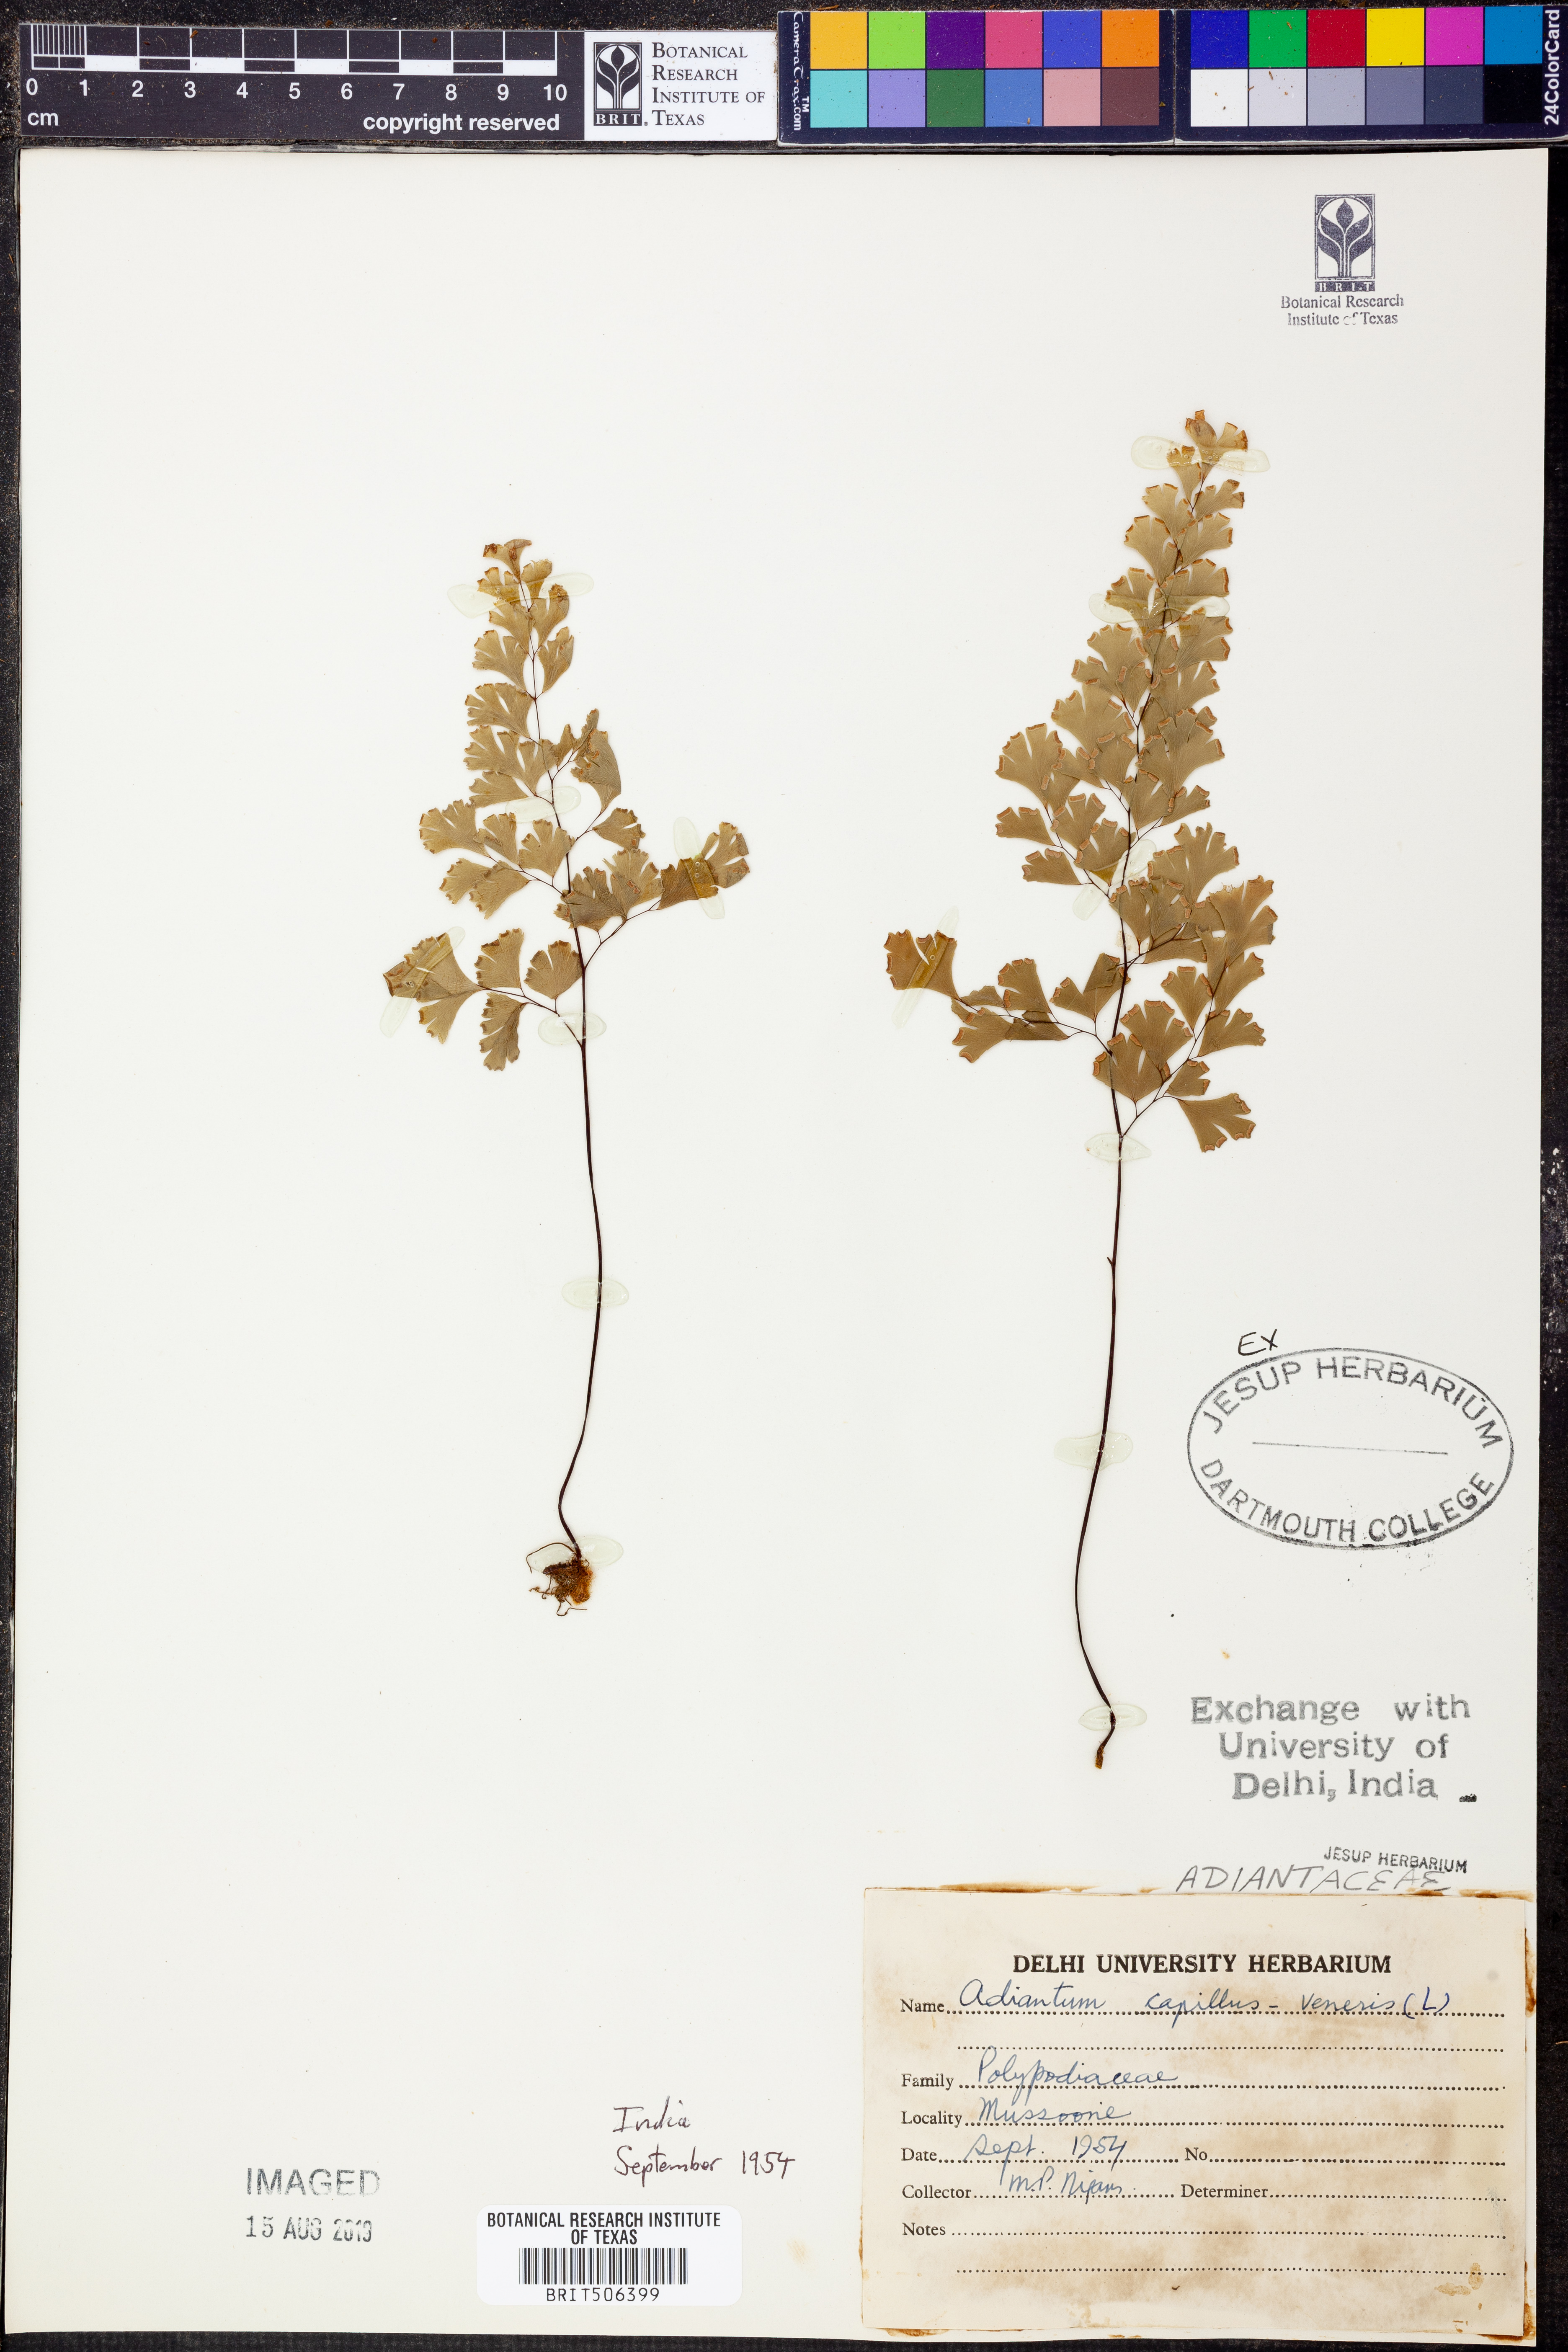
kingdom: Plantae
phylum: Tracheophyta
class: Polypodiopsida
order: Polypodiales
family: Pteridaceae
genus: Adiantum
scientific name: Adiantum capillus-veneris
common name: Maidenhair fern
